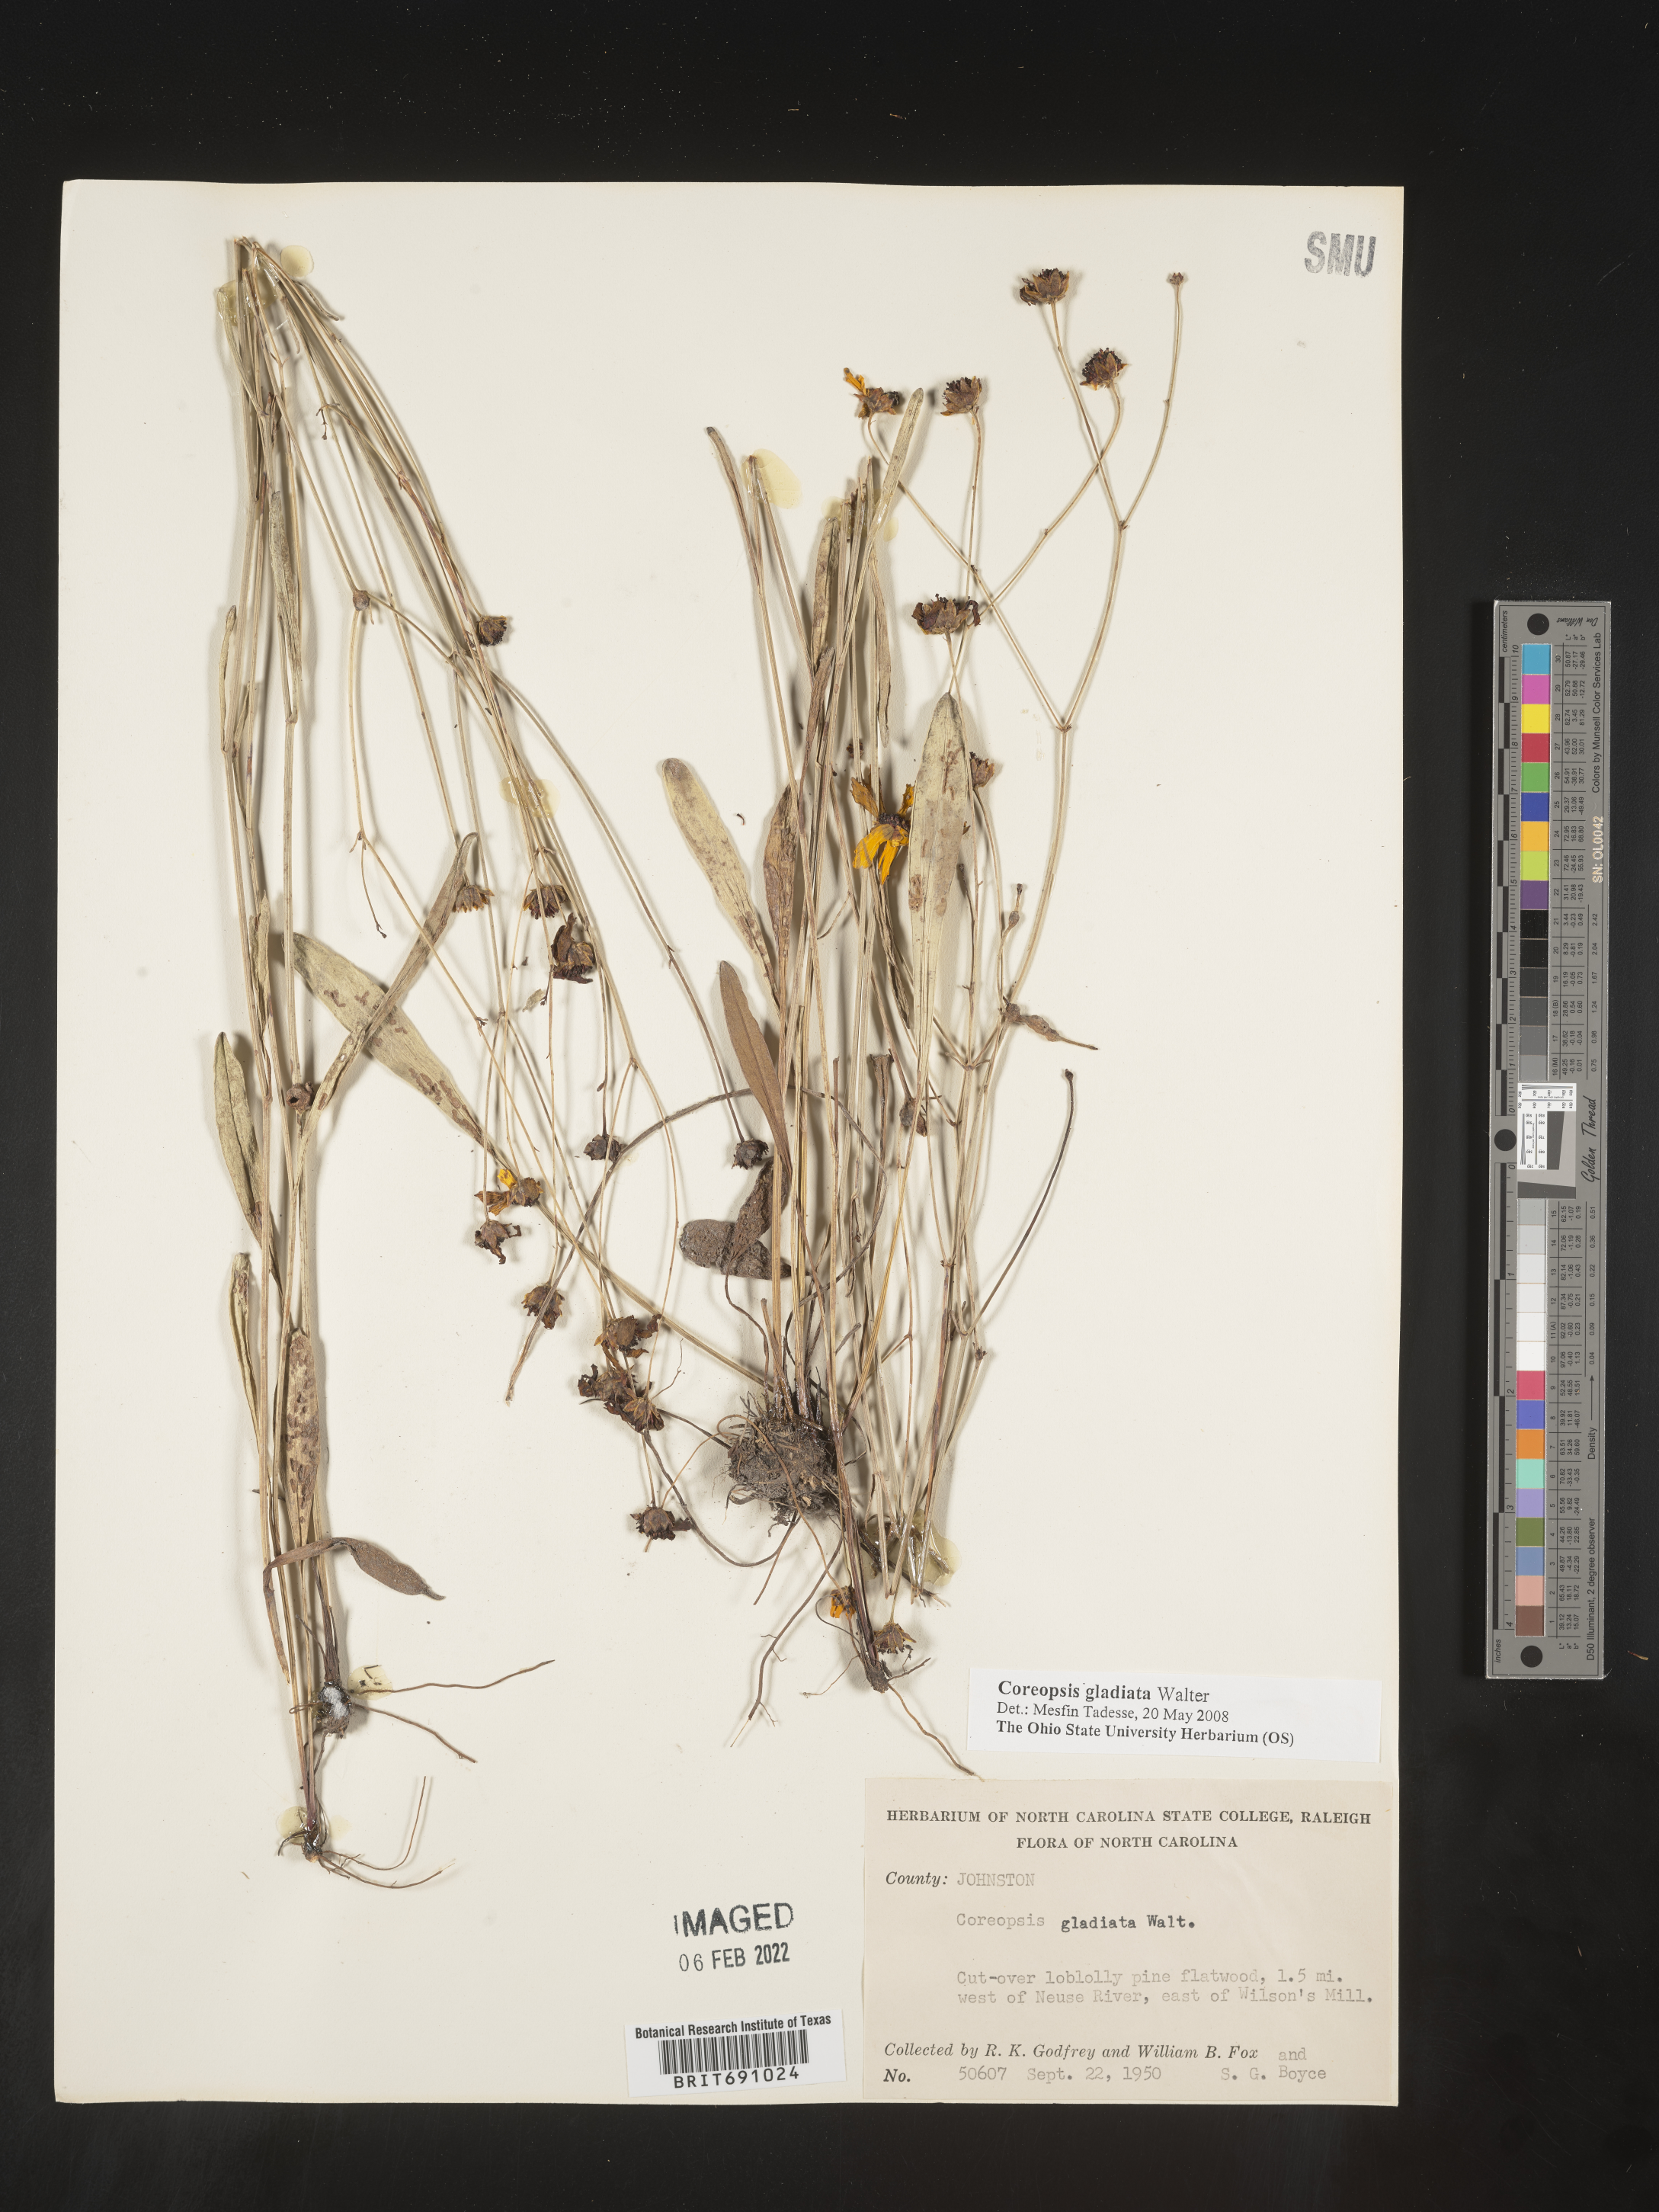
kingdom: Plantae
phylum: Tracheophyta
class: Magnoliopsida
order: Asterales
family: Asteraceae
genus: Coreopsis
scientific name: Coreopsis gladiata
